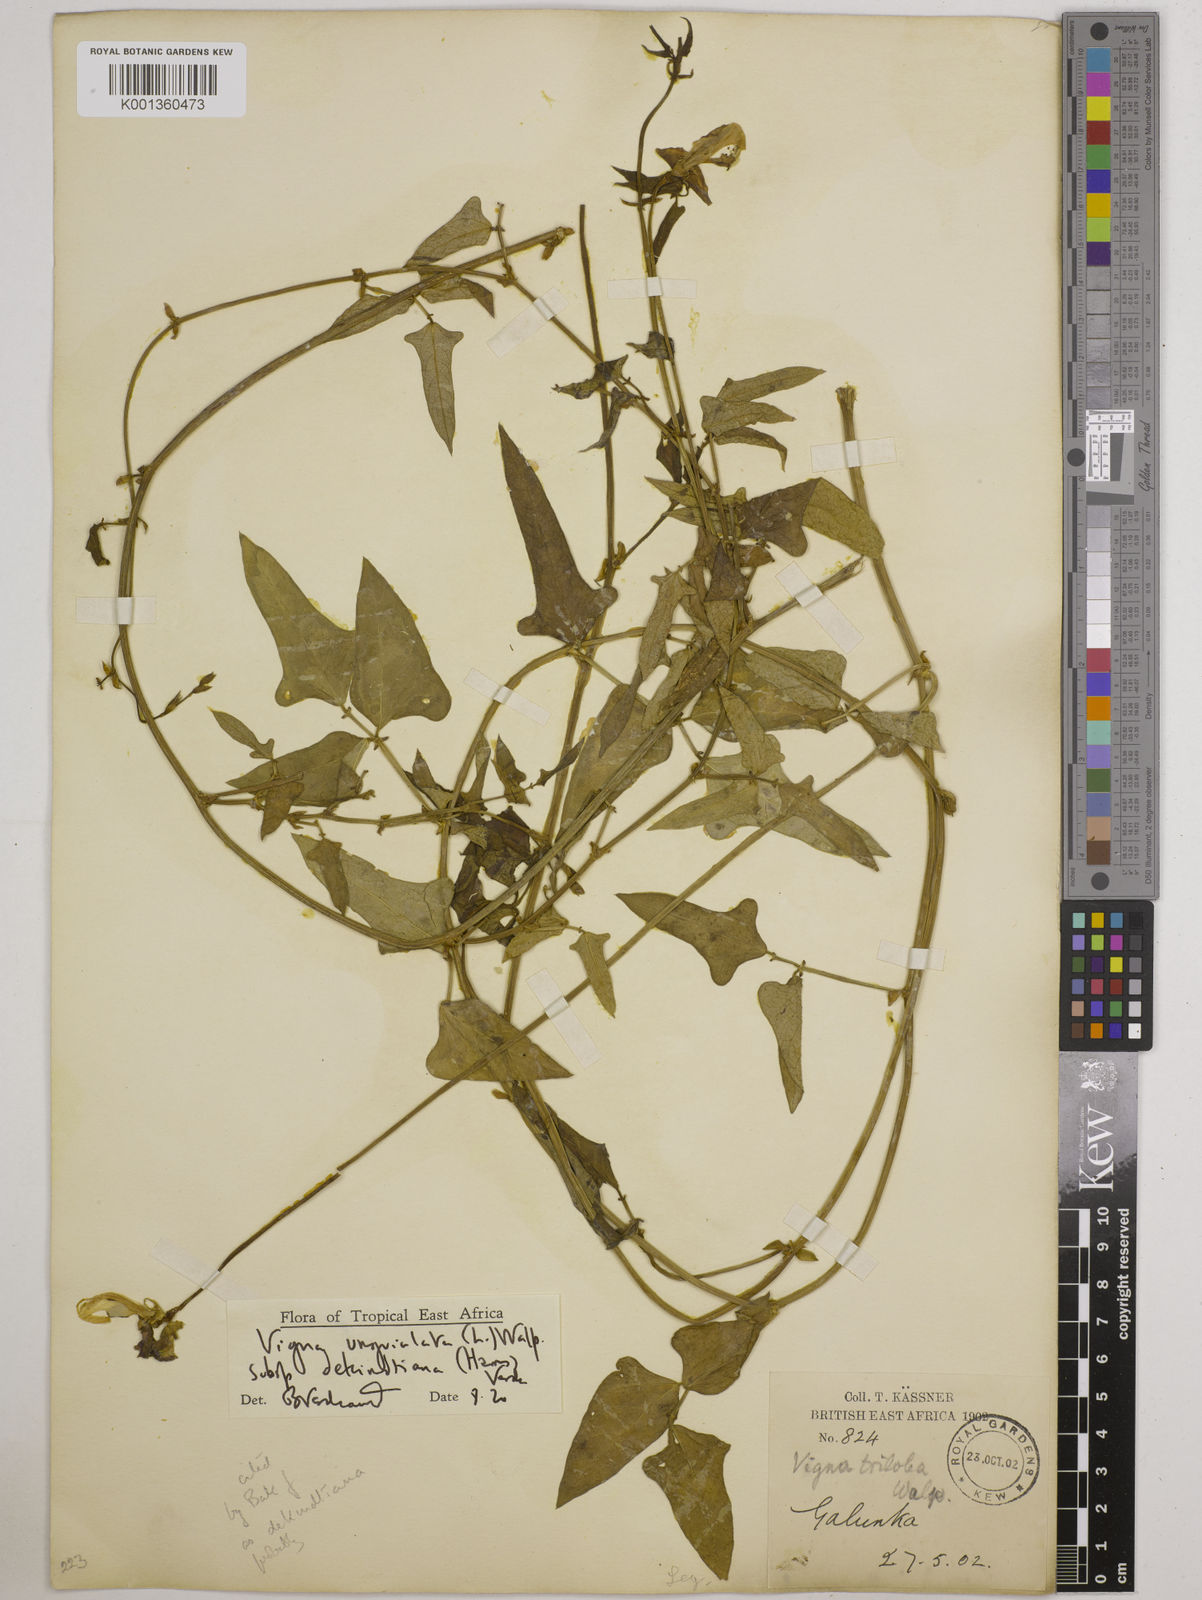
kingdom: Plantae
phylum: Tracheophyta
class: Magnoliopsida
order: Fabales
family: Fabaceae
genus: Vigna
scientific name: Vigna
